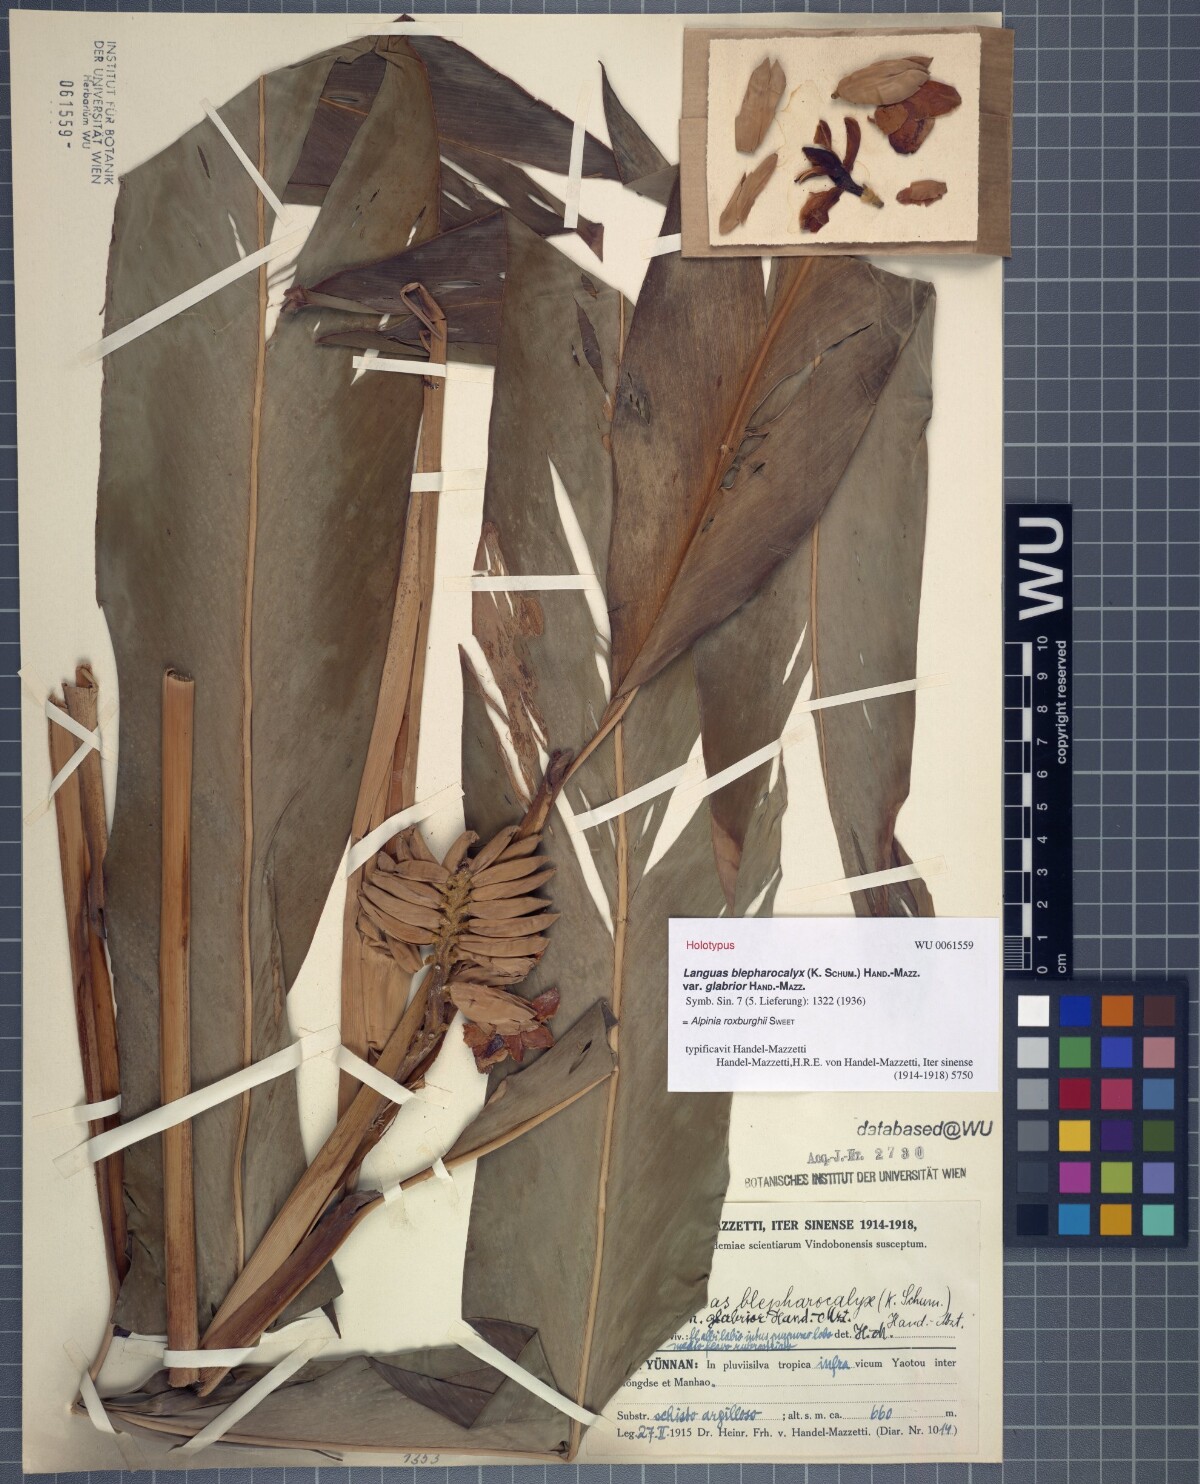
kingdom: Plantae
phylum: Tracheophyta
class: Liliopsida
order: Zingiberales
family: Zingiberaceae
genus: Alpinia
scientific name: Alpinia roxburghii
